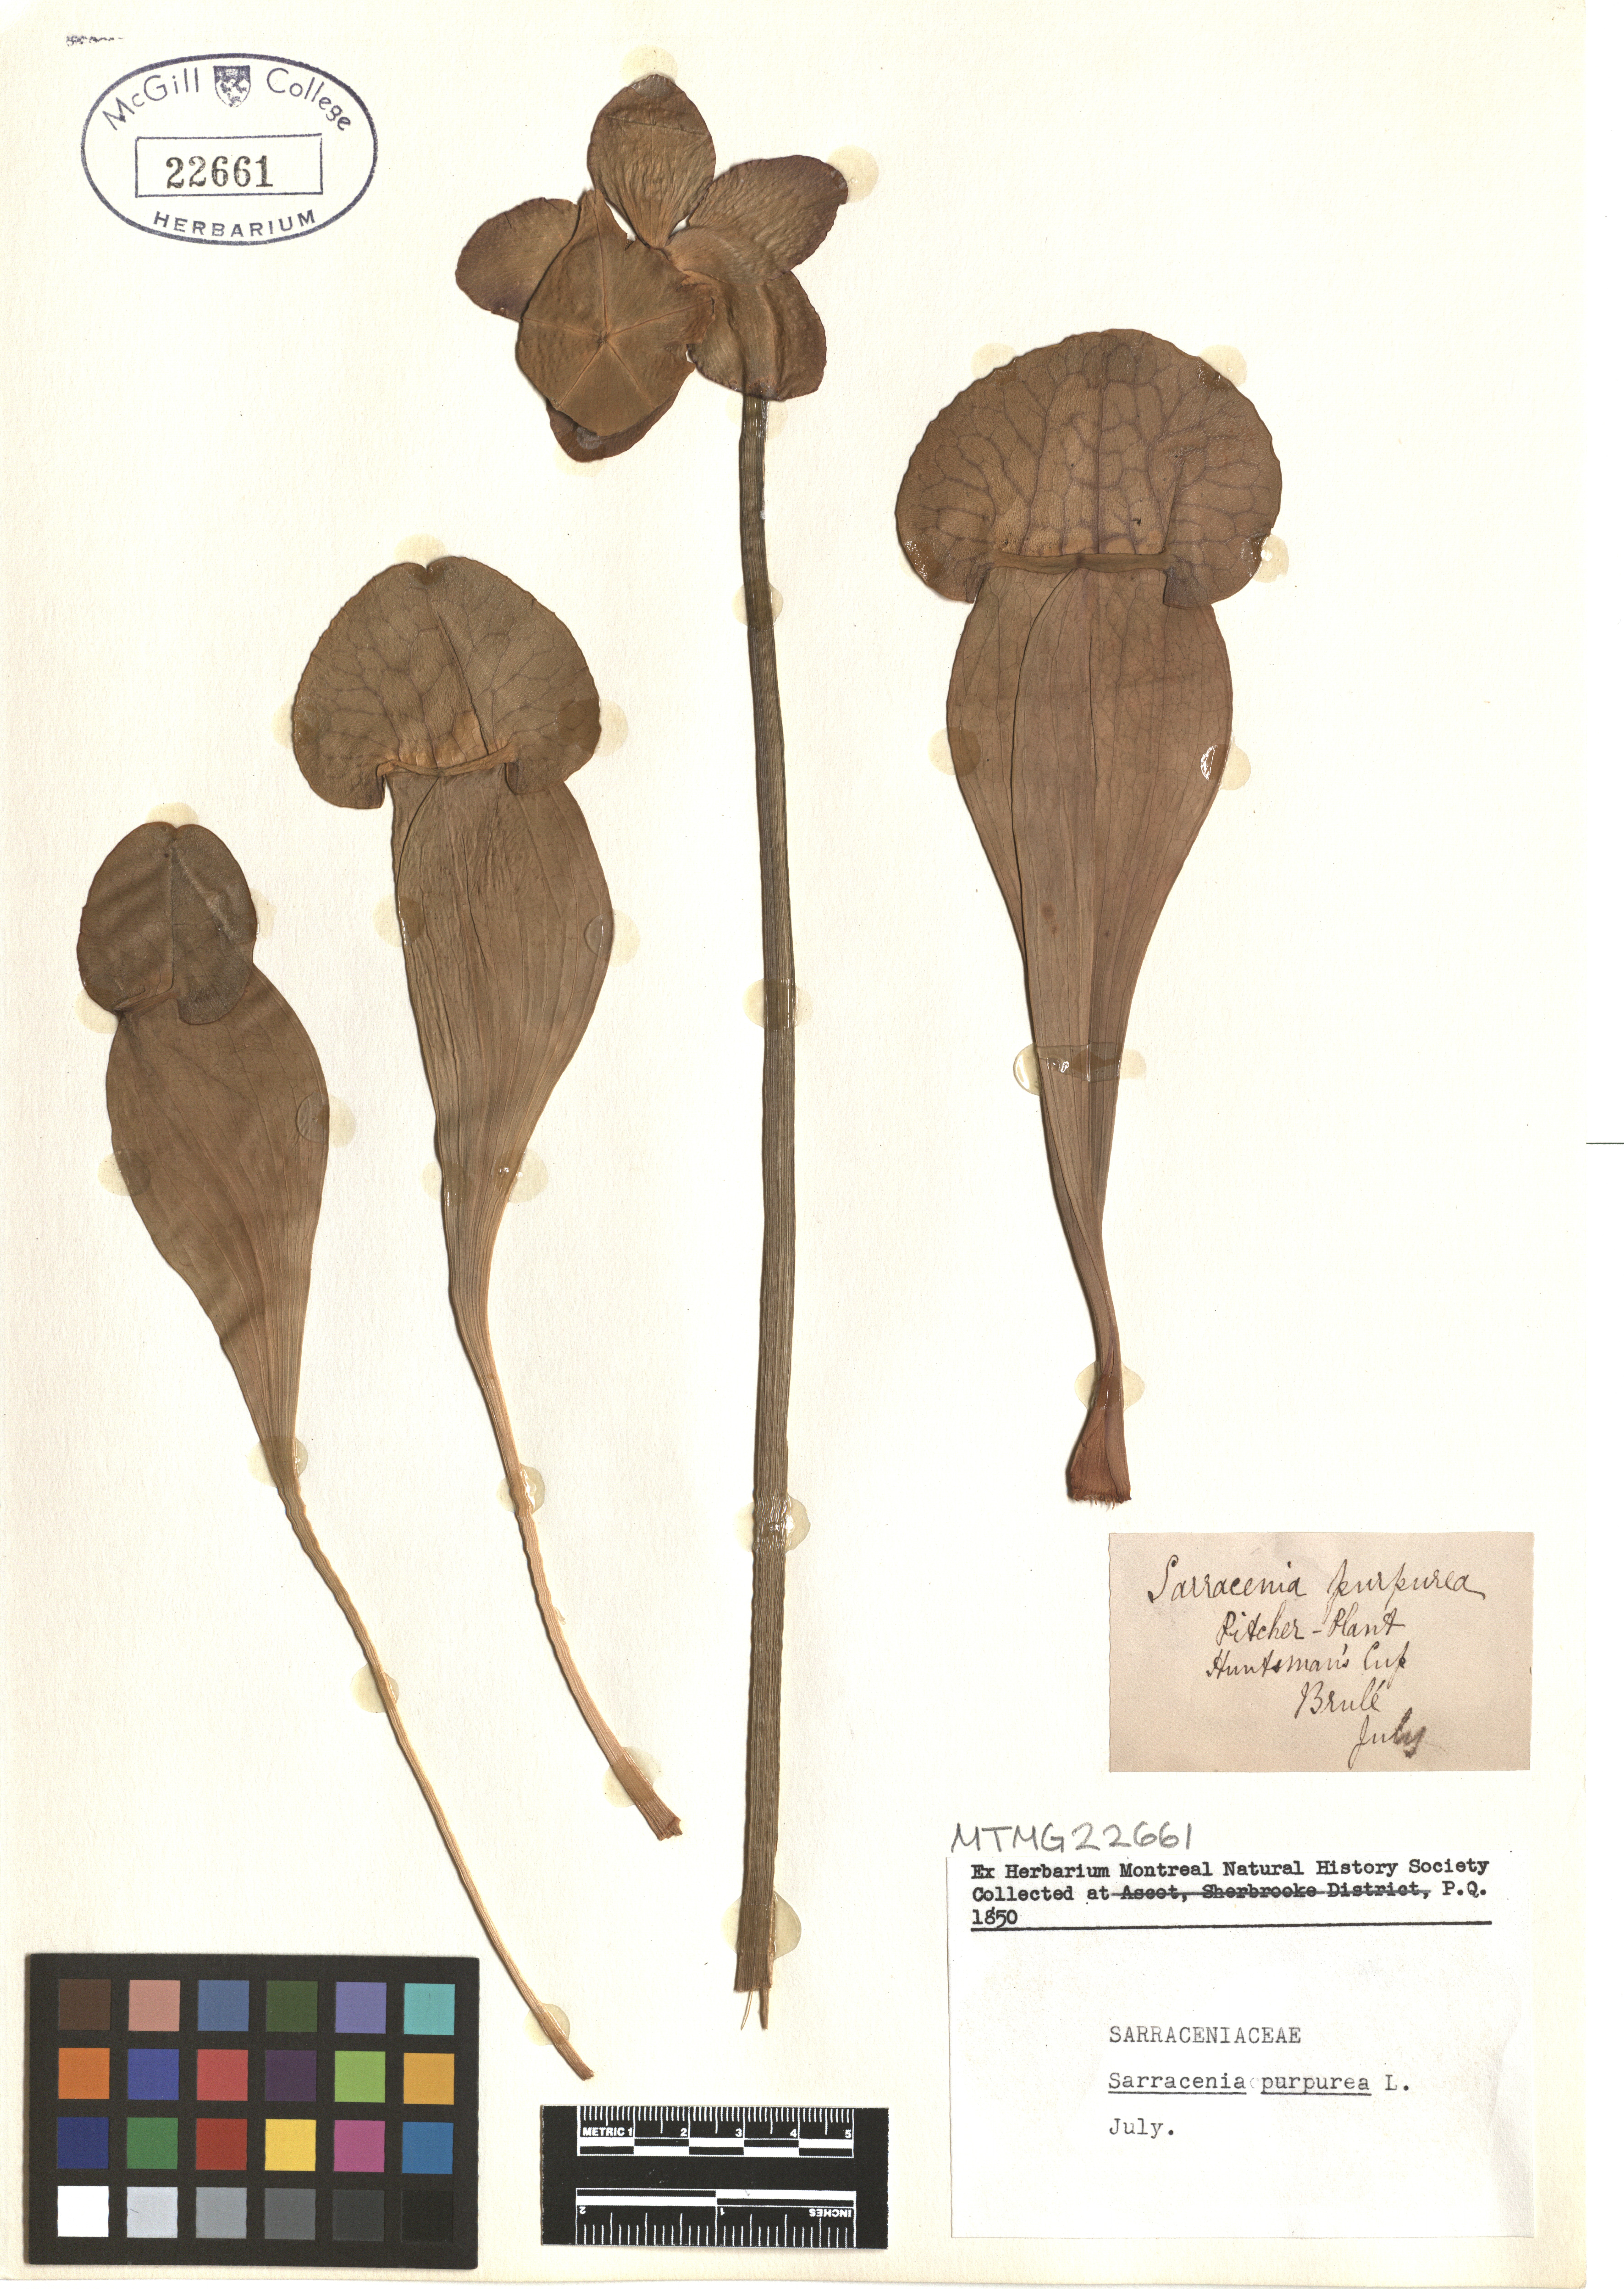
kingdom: Plantae
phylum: Tracheophyta
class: Magnoliopsida
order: Ericales
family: Sarraceniaceae
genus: Sarracenia
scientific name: Sarracenia purpurea
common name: Pitcherplant
